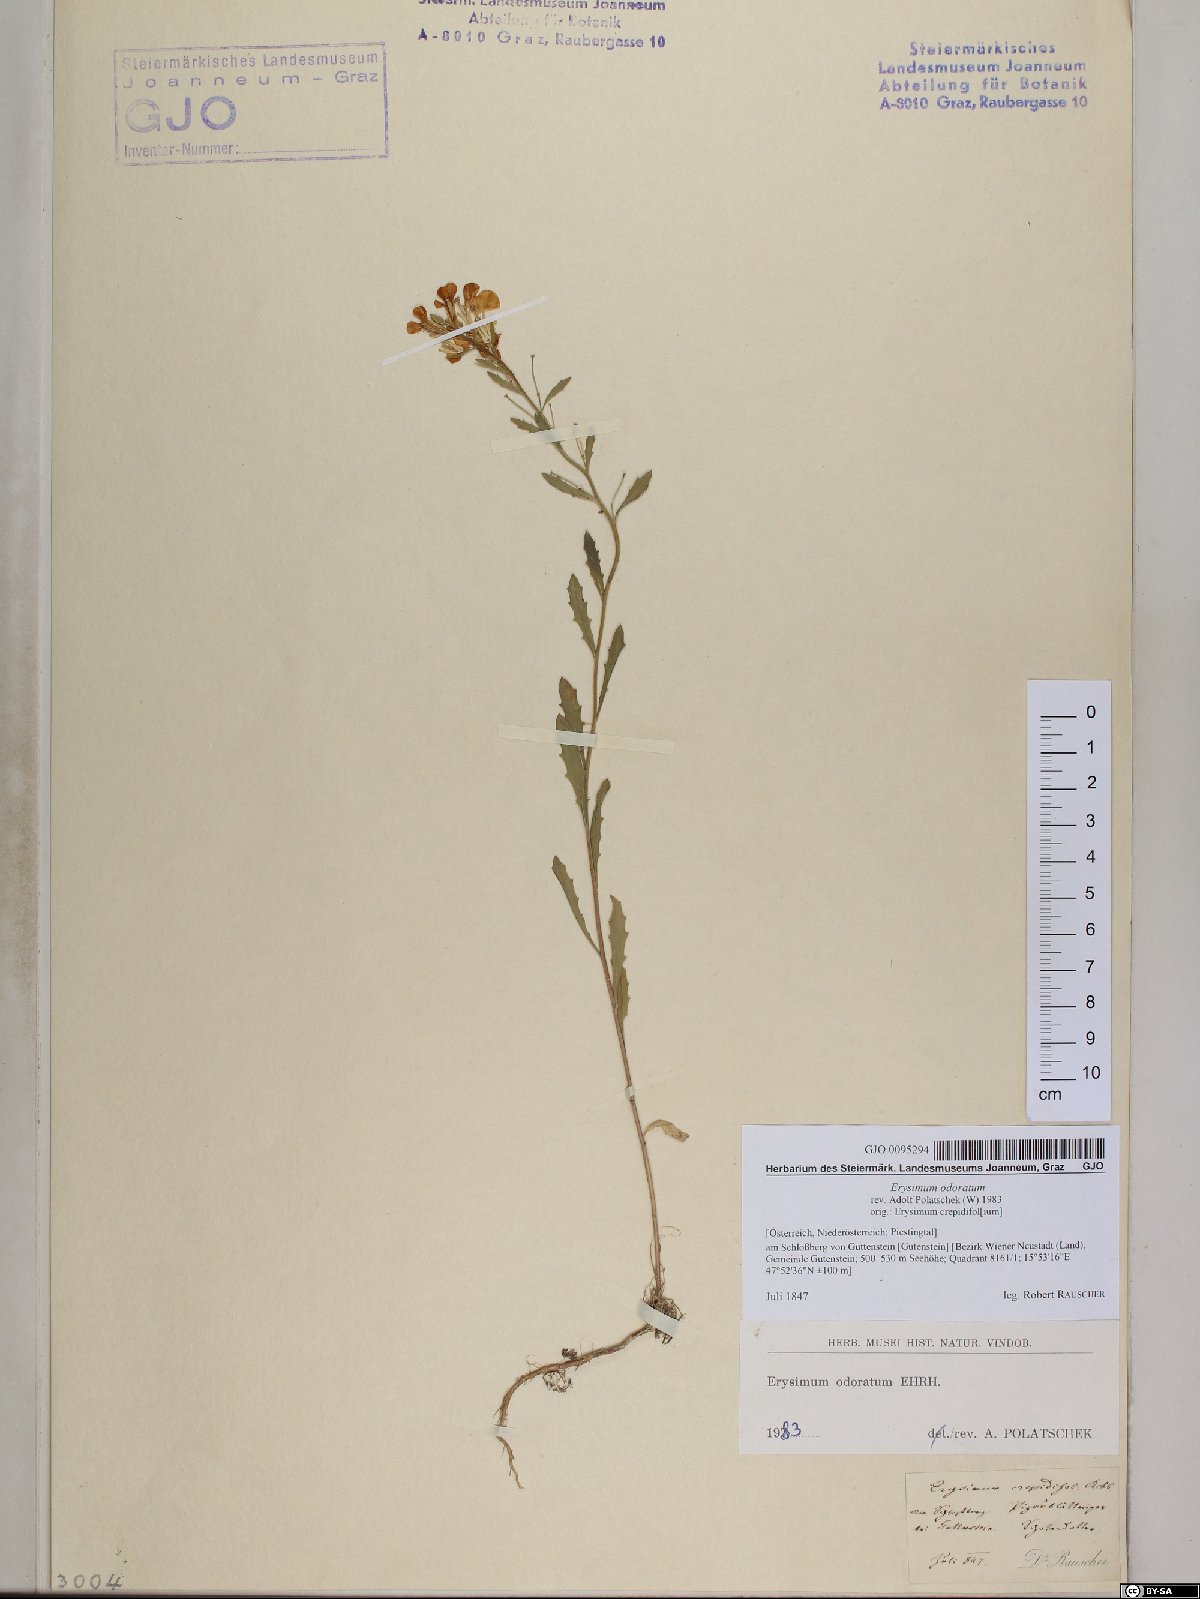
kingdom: Plantae
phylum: Tracheophyta
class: Magnoliopsida
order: Brassicales
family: Brassicaceae
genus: Erysimum
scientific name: Erysimum odoratum
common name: Smelly wallflower
